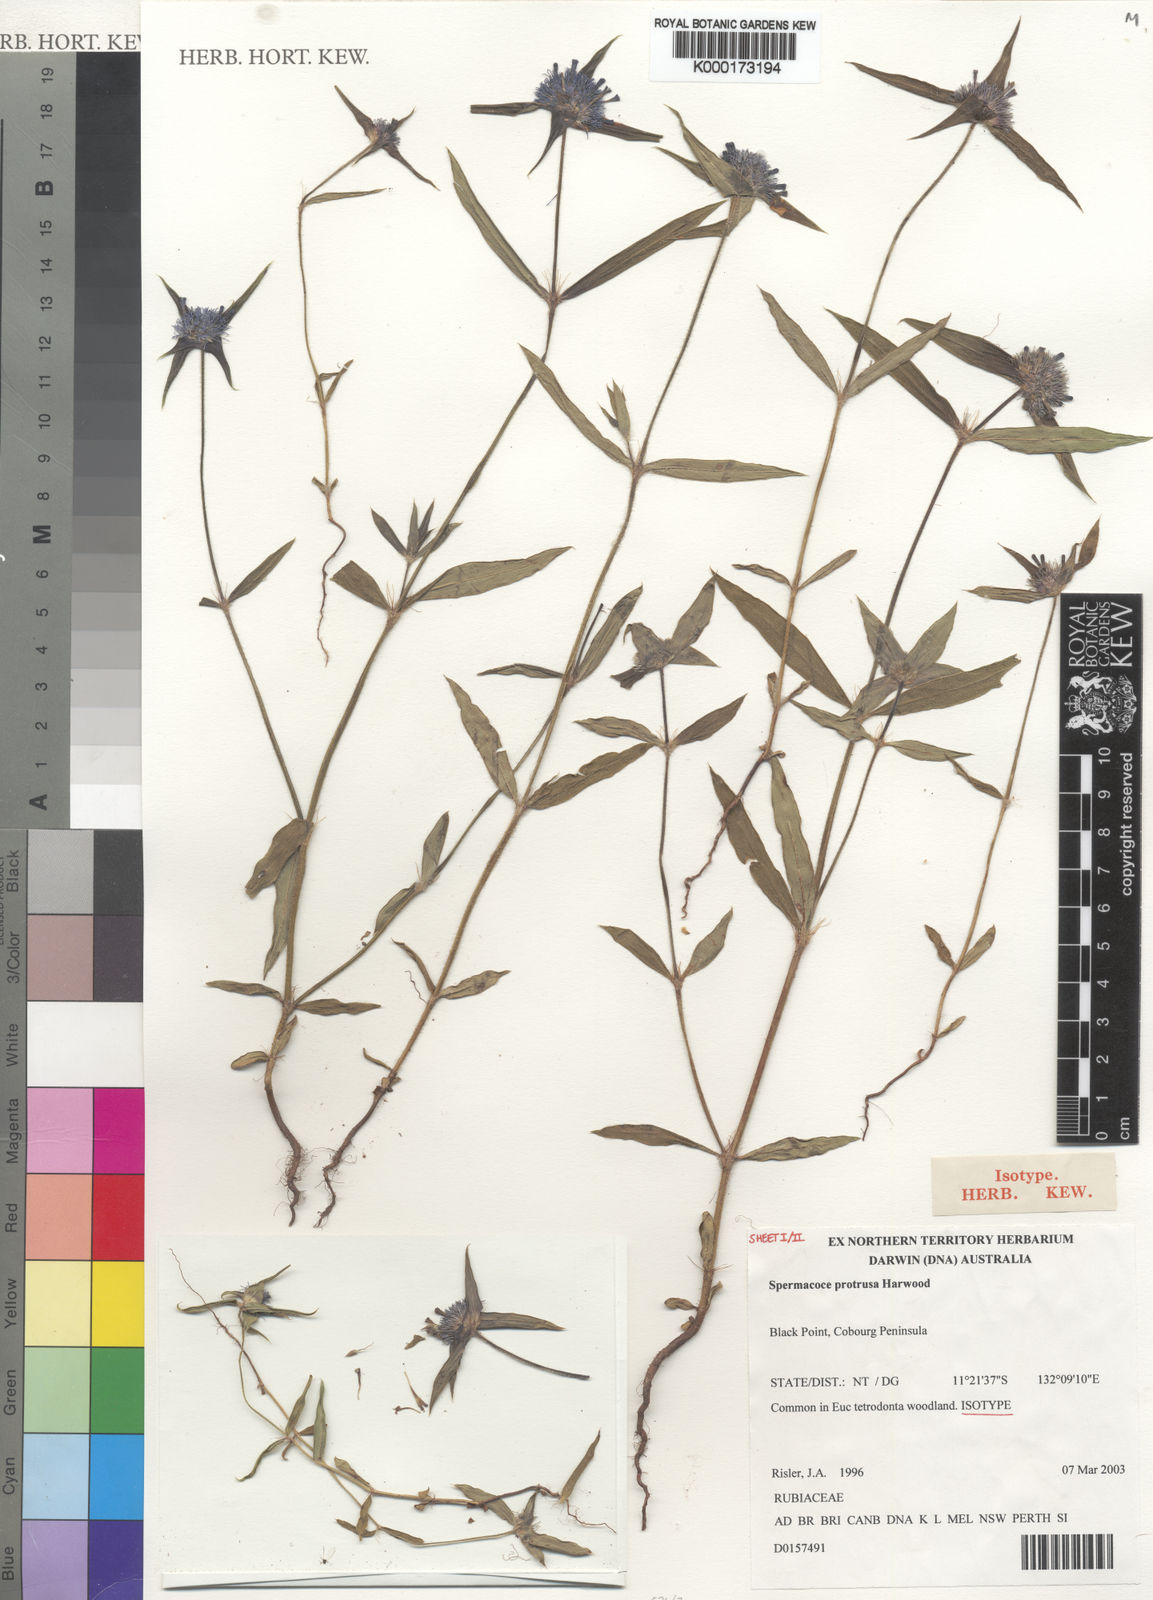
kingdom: Plantae
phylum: Tracheophyta
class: Magnoliopsida
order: Gentianales
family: Rubiaceae
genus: Spermacoce
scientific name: Spermacoce protrusa
